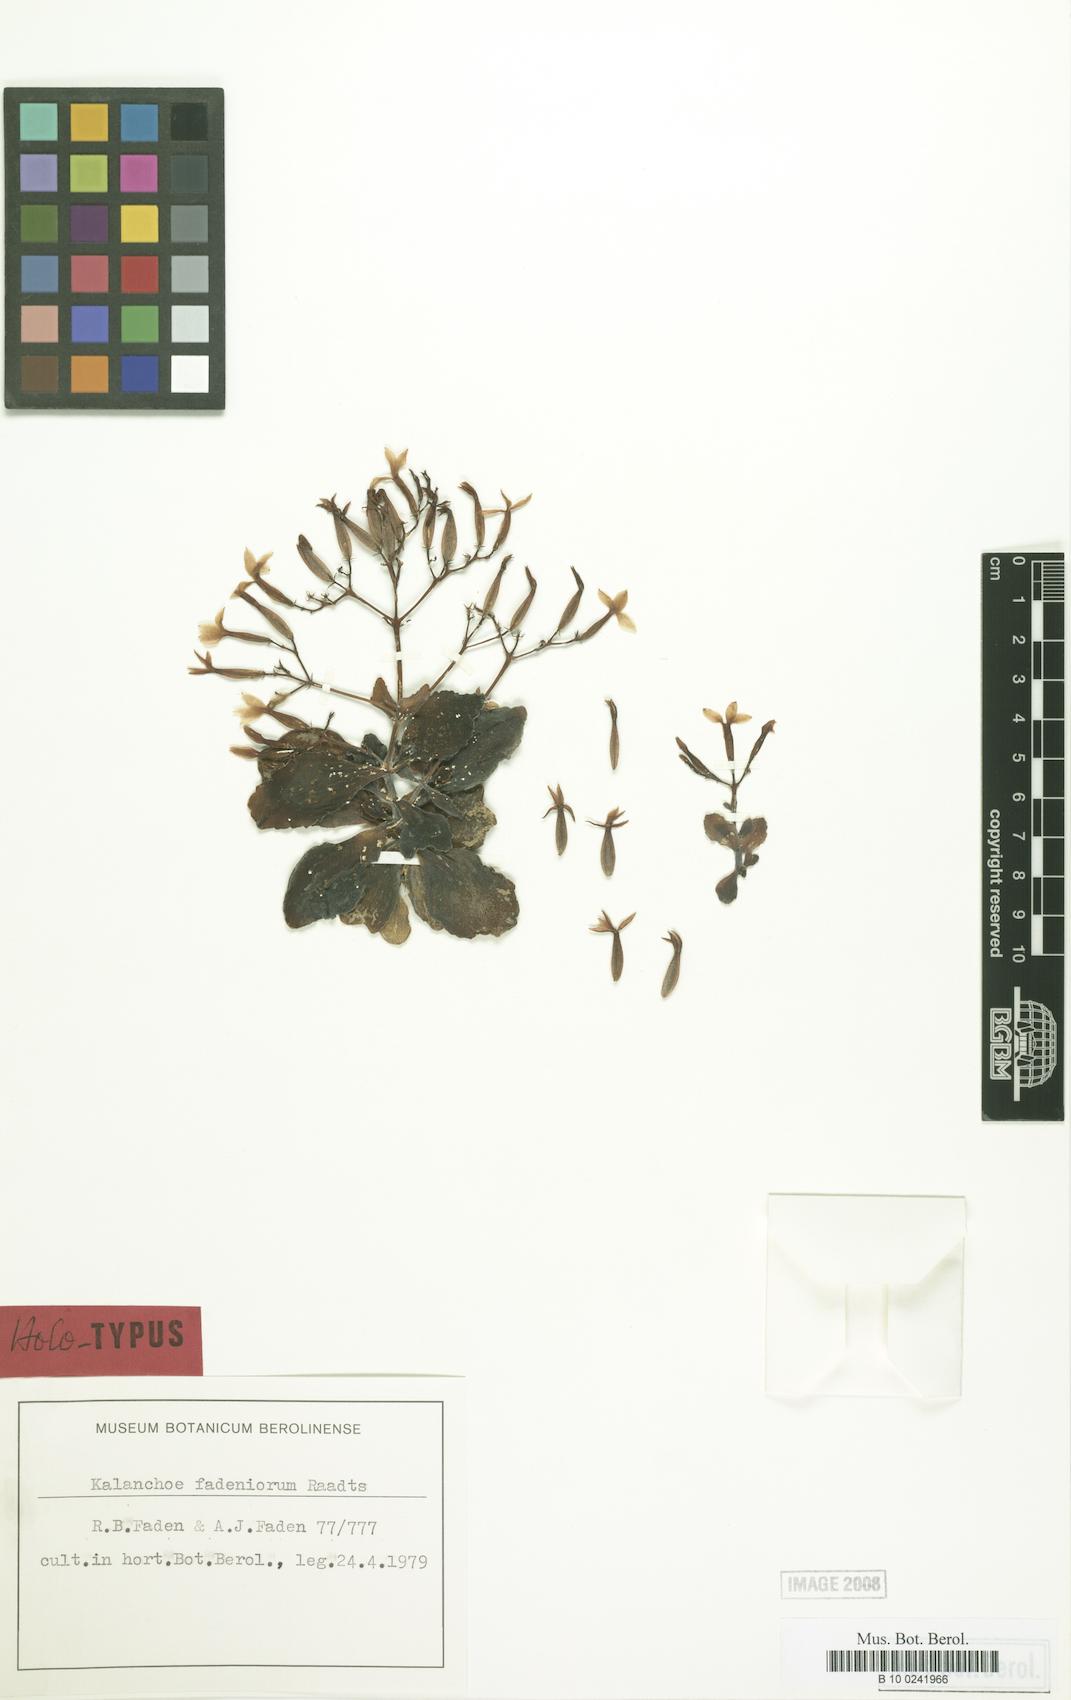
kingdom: Plantae
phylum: Tracheophyta
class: Magnoliopsida
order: Saxifragales
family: Crassulaceae
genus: Kalanchoe
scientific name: Kalanchoe fadeniorum
